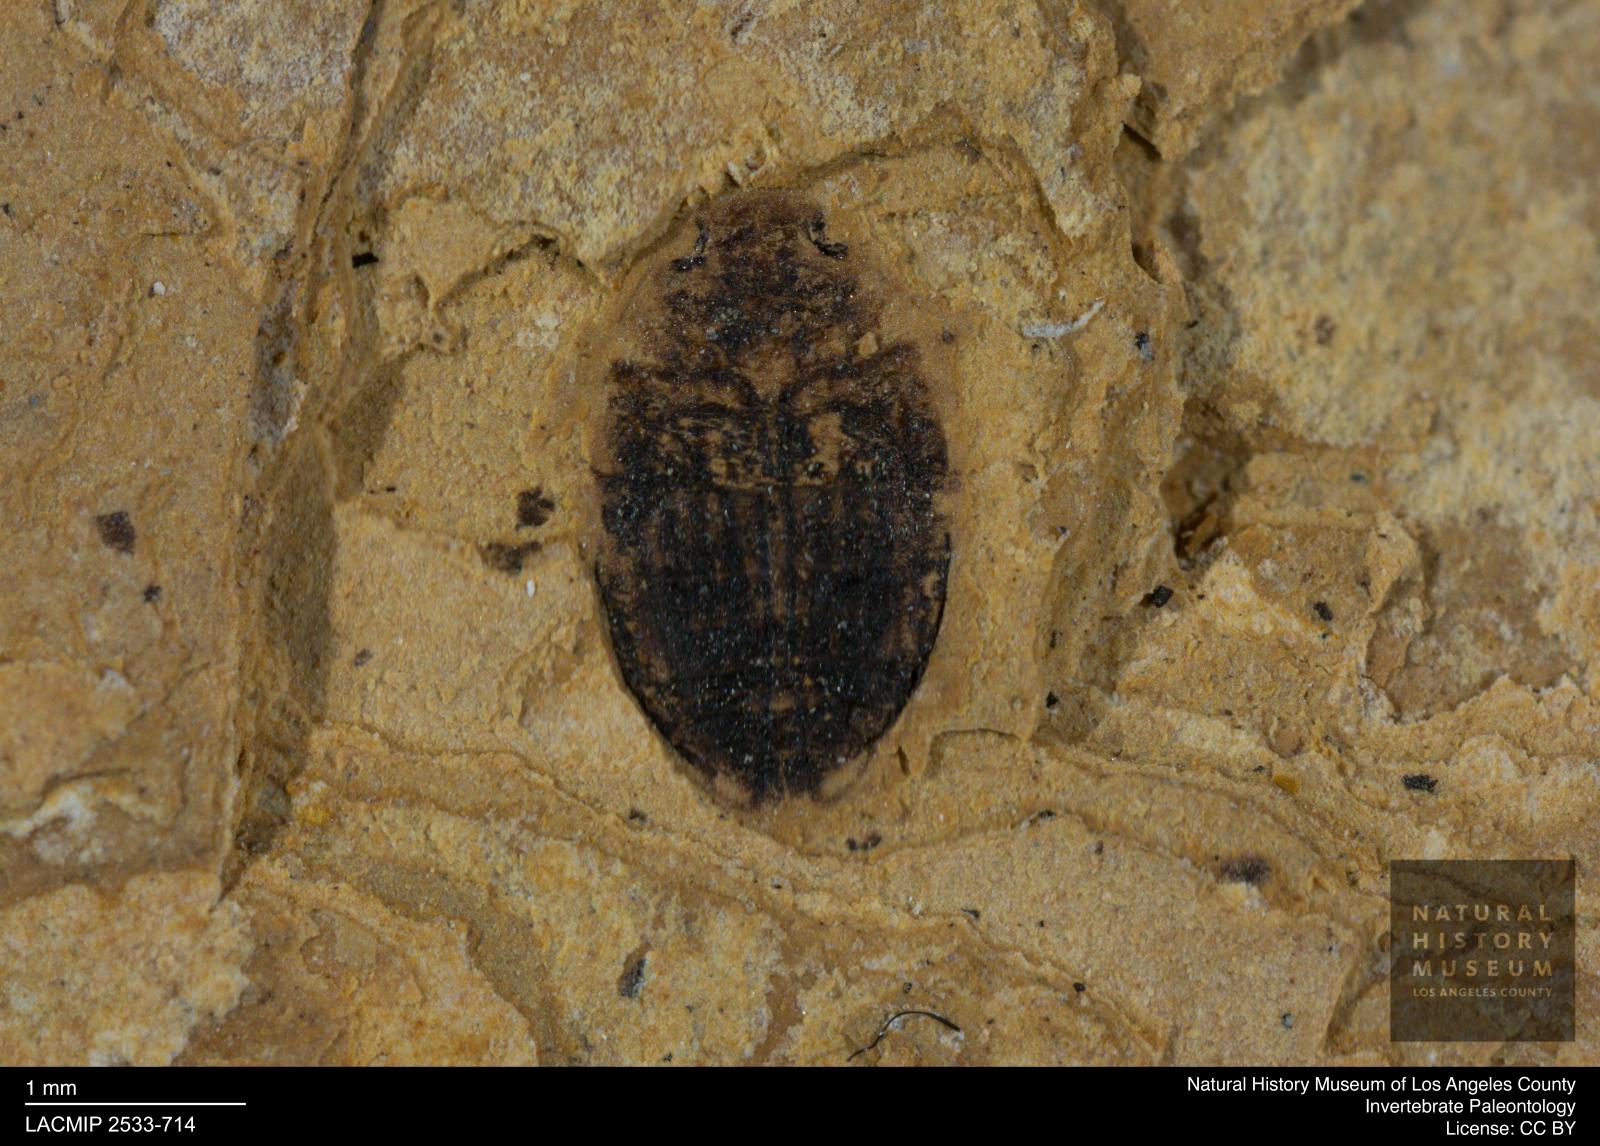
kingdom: Animalia
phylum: Arthropoda
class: Insecta
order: Coleoptera
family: Dytiscidae
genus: Oreodytes
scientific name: Oreodytes cryptolineatus
